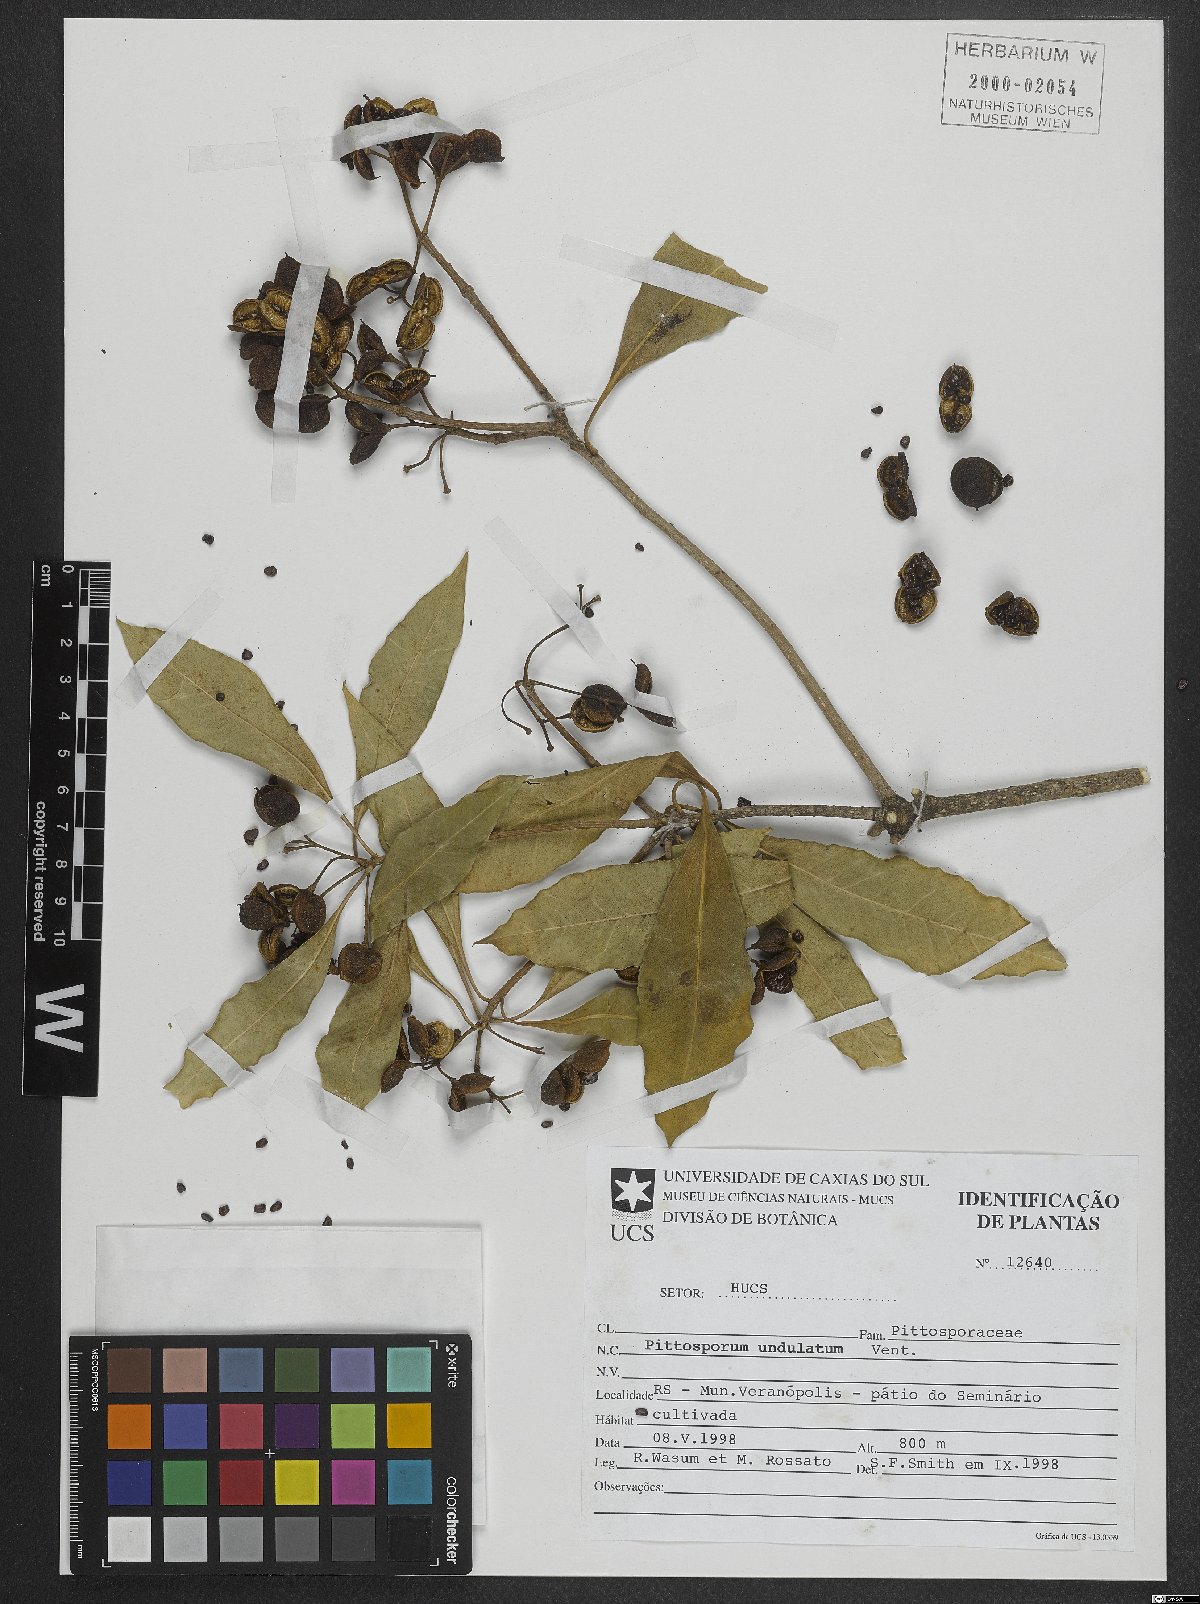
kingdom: Plantae
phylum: Tracheophyta
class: Magnoliopsida
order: Apiales
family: Pittosporaceae
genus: Pittosporum
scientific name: Pittosporum undulatum
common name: Australian cheesewood
